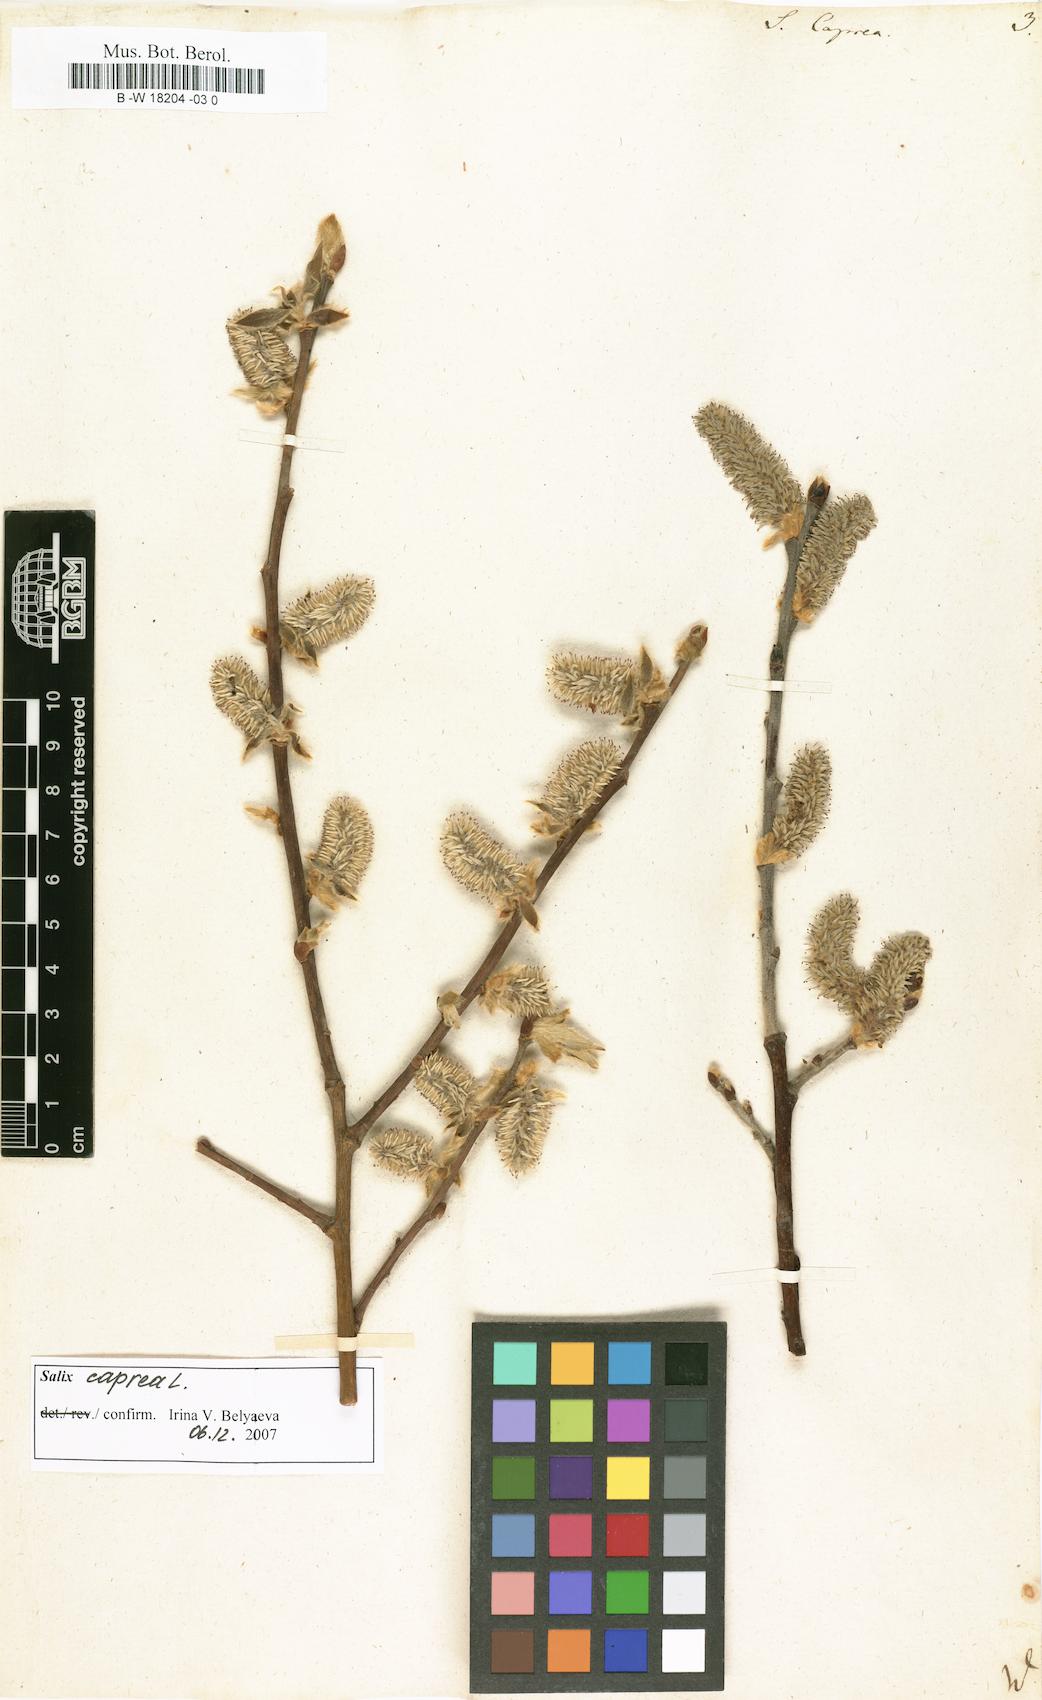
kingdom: Plantae
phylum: Tracheophyta
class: Magnoliopsida
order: Malpighiales
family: Salicaceae
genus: Salix
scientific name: Salix caprea
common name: Goat willow
